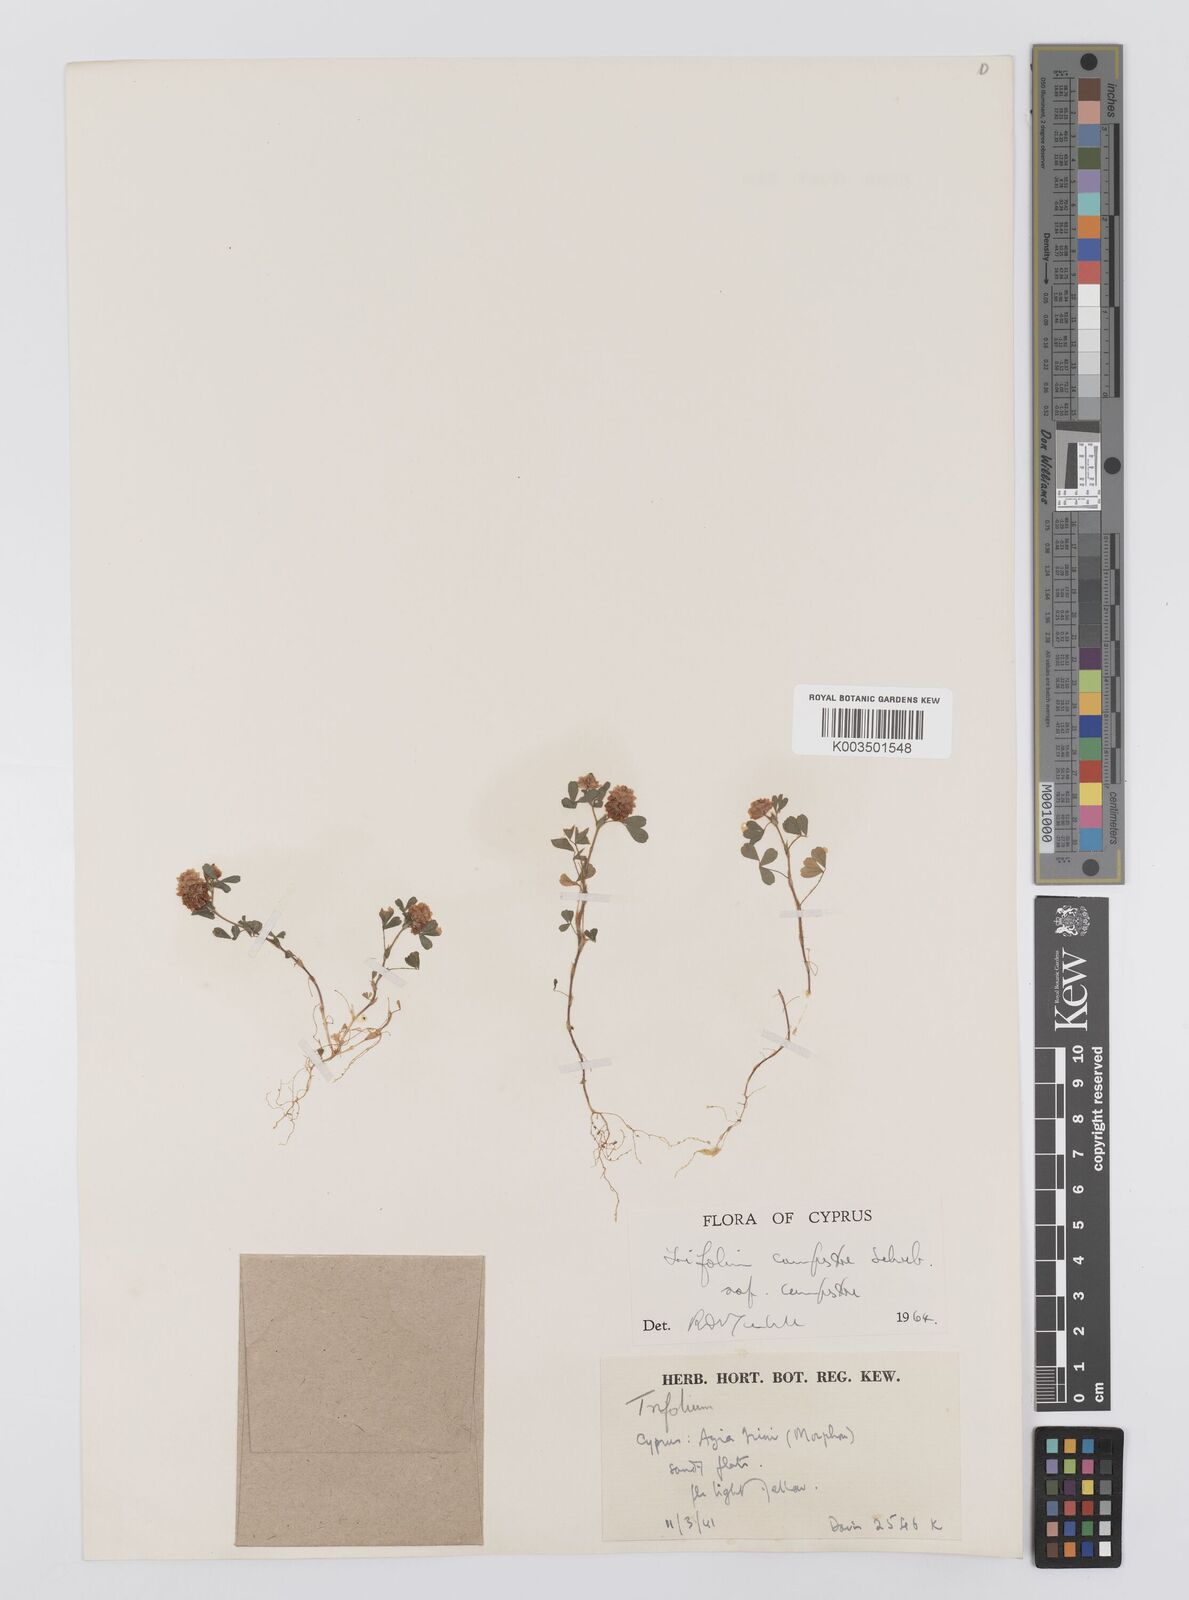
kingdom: Plantae
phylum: Tracheophyta
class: Magnoliopsida
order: Fabales
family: Fabaceae
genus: Trifolium
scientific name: Trifolium campestre
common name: Field clover
